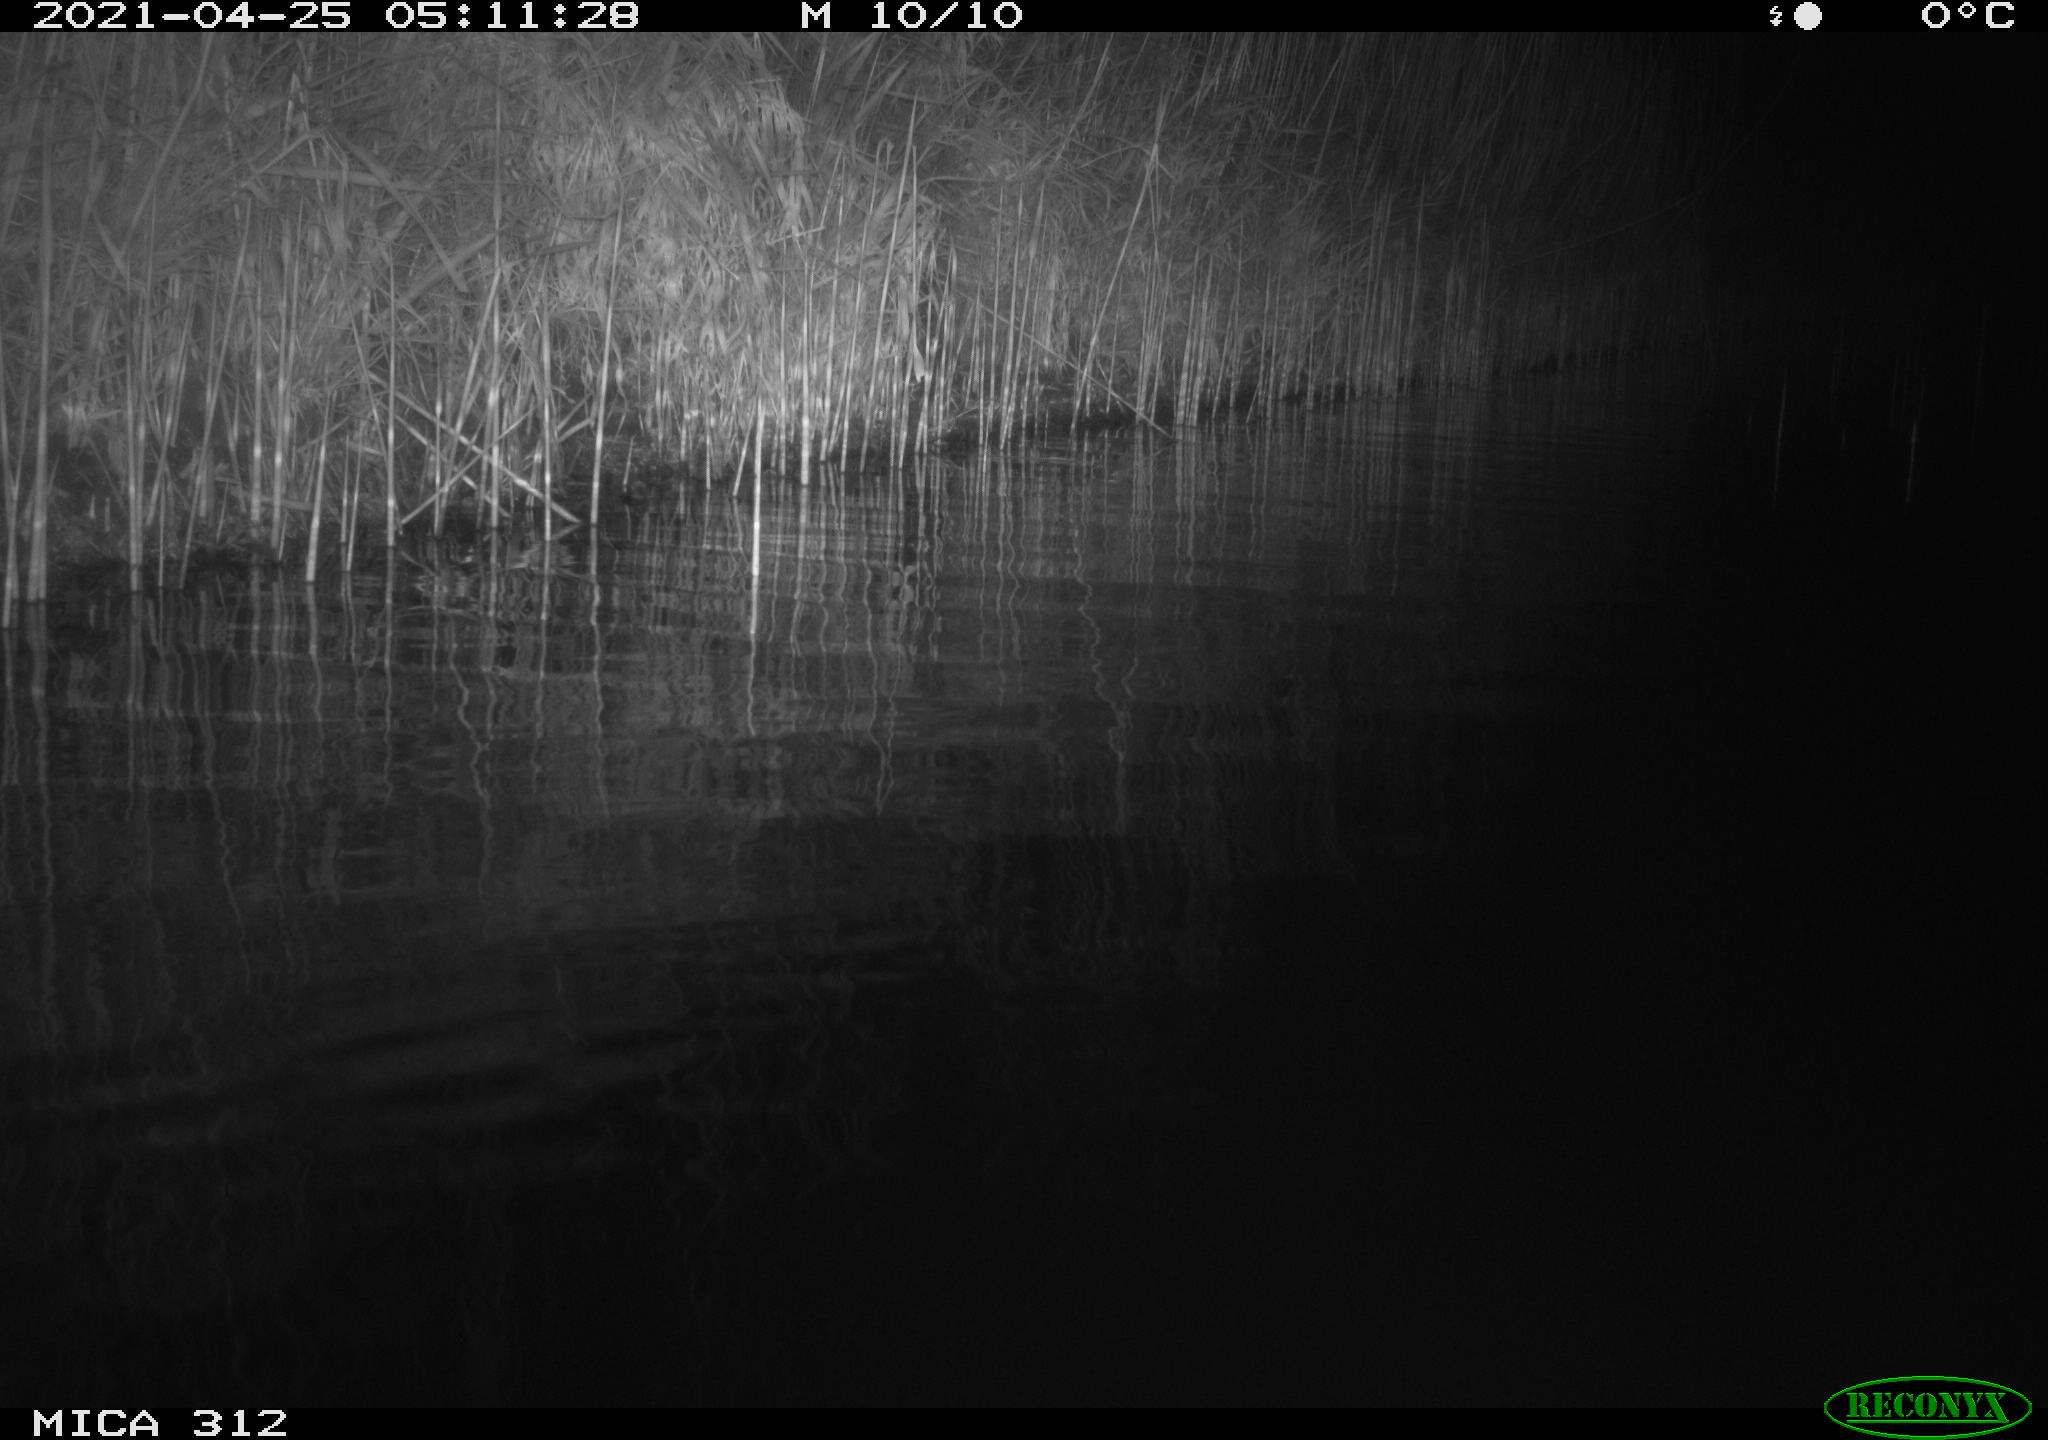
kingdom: Animalia
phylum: Chordata
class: Aves
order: Anseriformes
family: Anatidae
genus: Anas
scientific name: Anas platyrhynchos
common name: Mallard
